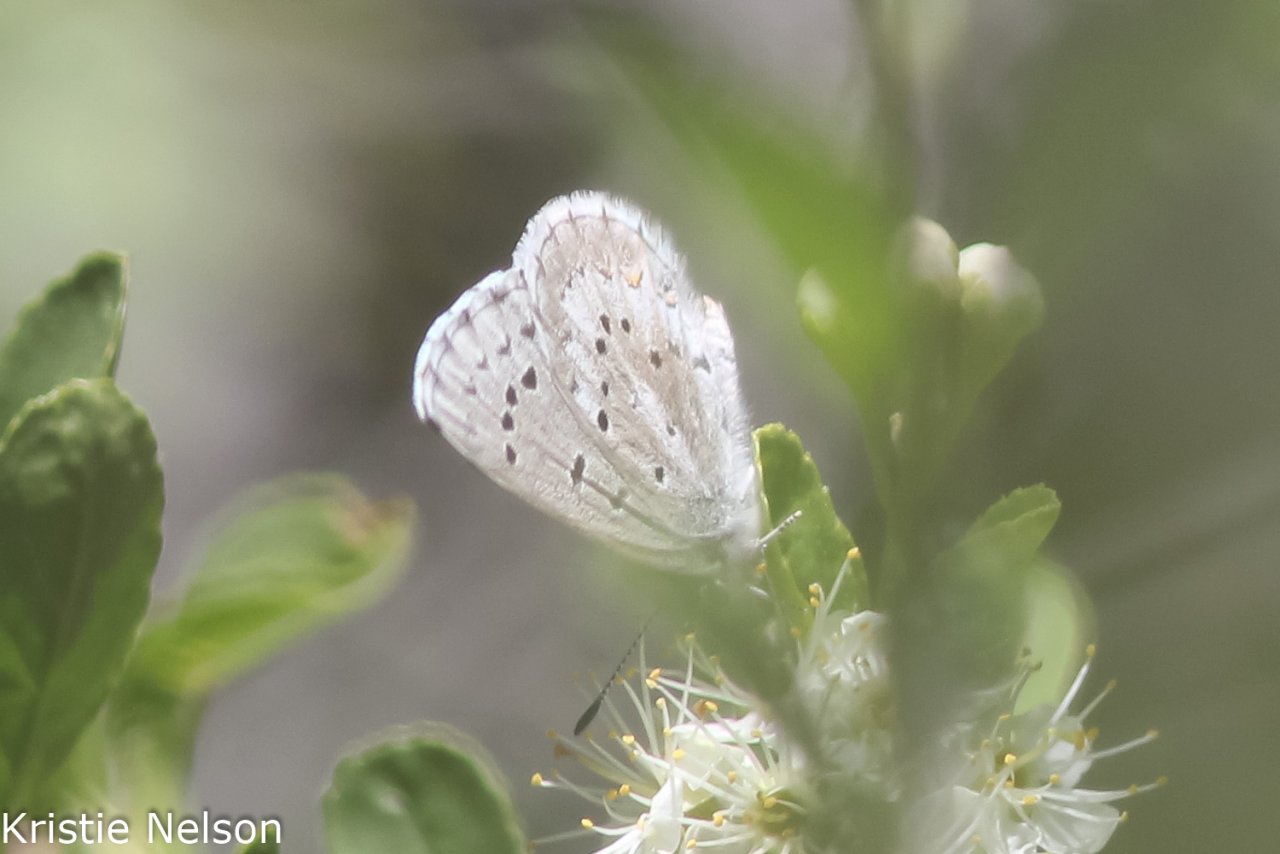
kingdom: Animalia
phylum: Arthropoda
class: Insecta
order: Lepidoptera
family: Lycaenidae
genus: Glaucopsyche
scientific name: Glaucopsyche piasus
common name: Arrowhead Blue
